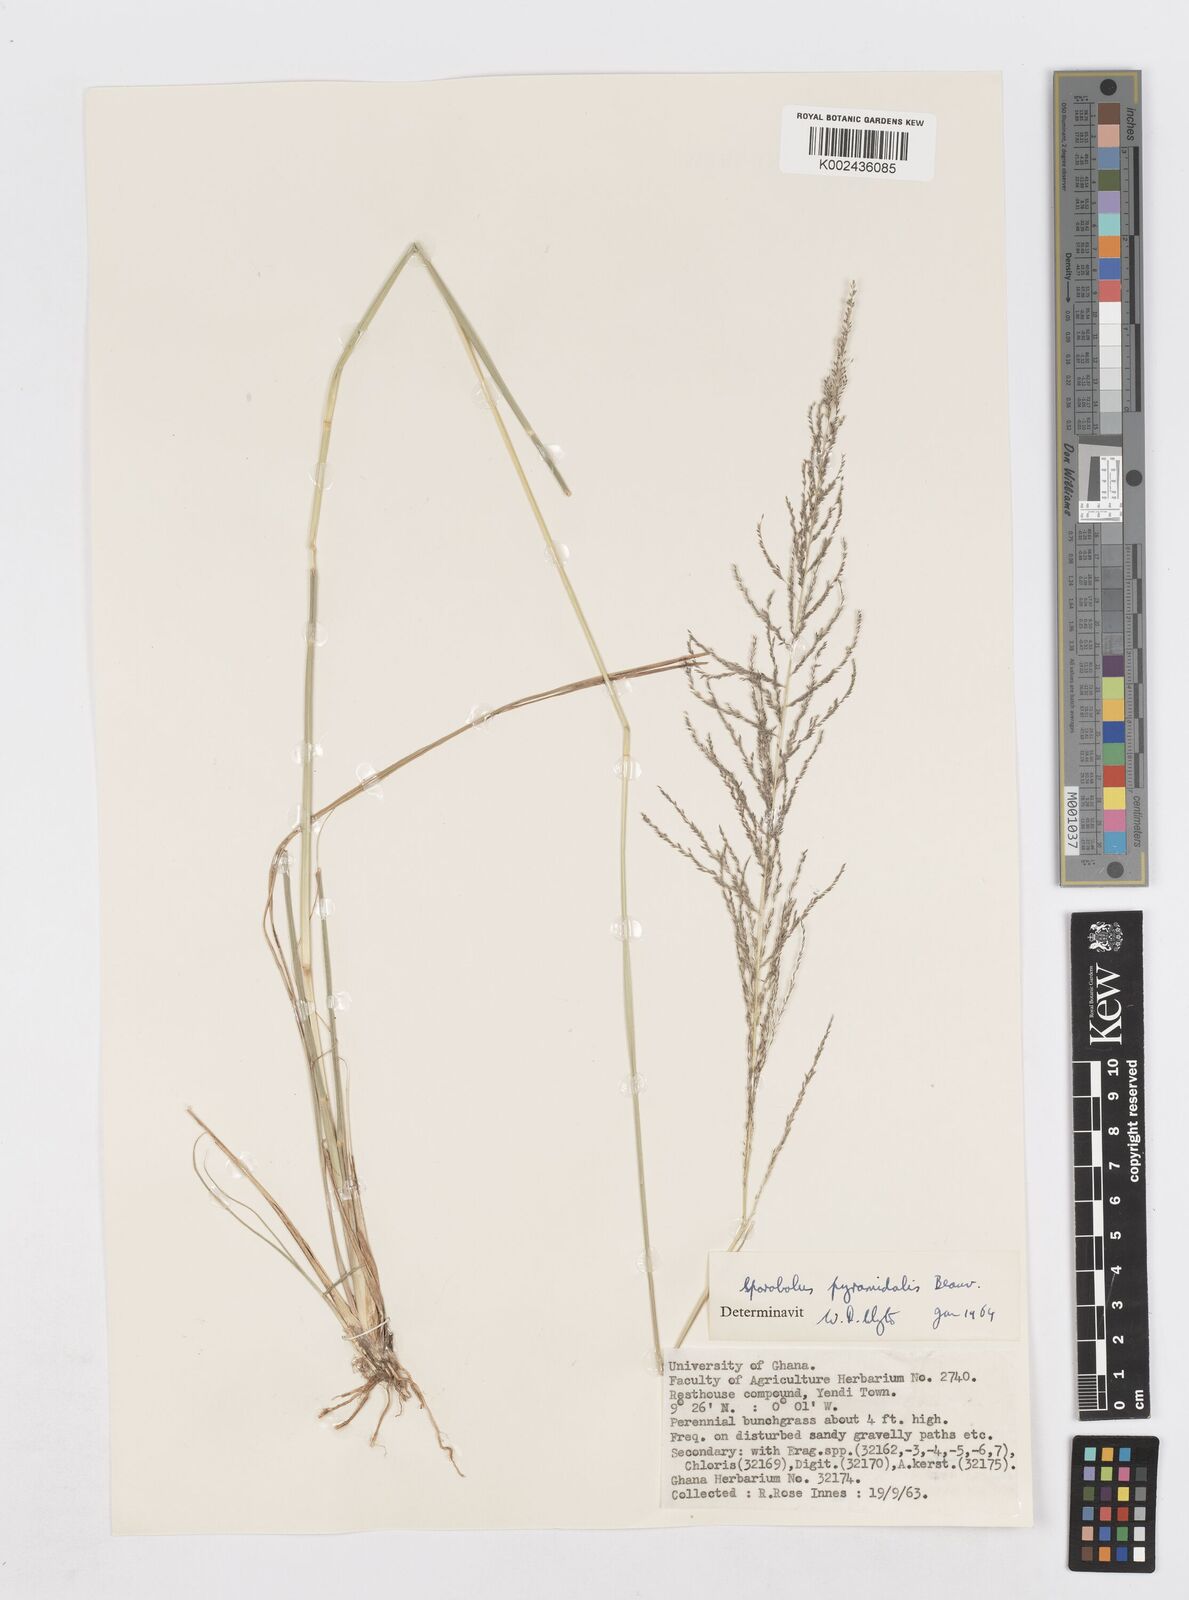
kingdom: Plantae
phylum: Tracheophyta
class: Liliopsida
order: Poales
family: Poaceae
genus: Sporobolus
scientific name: Sporobolus pyramidalis
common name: West indian dropseed
